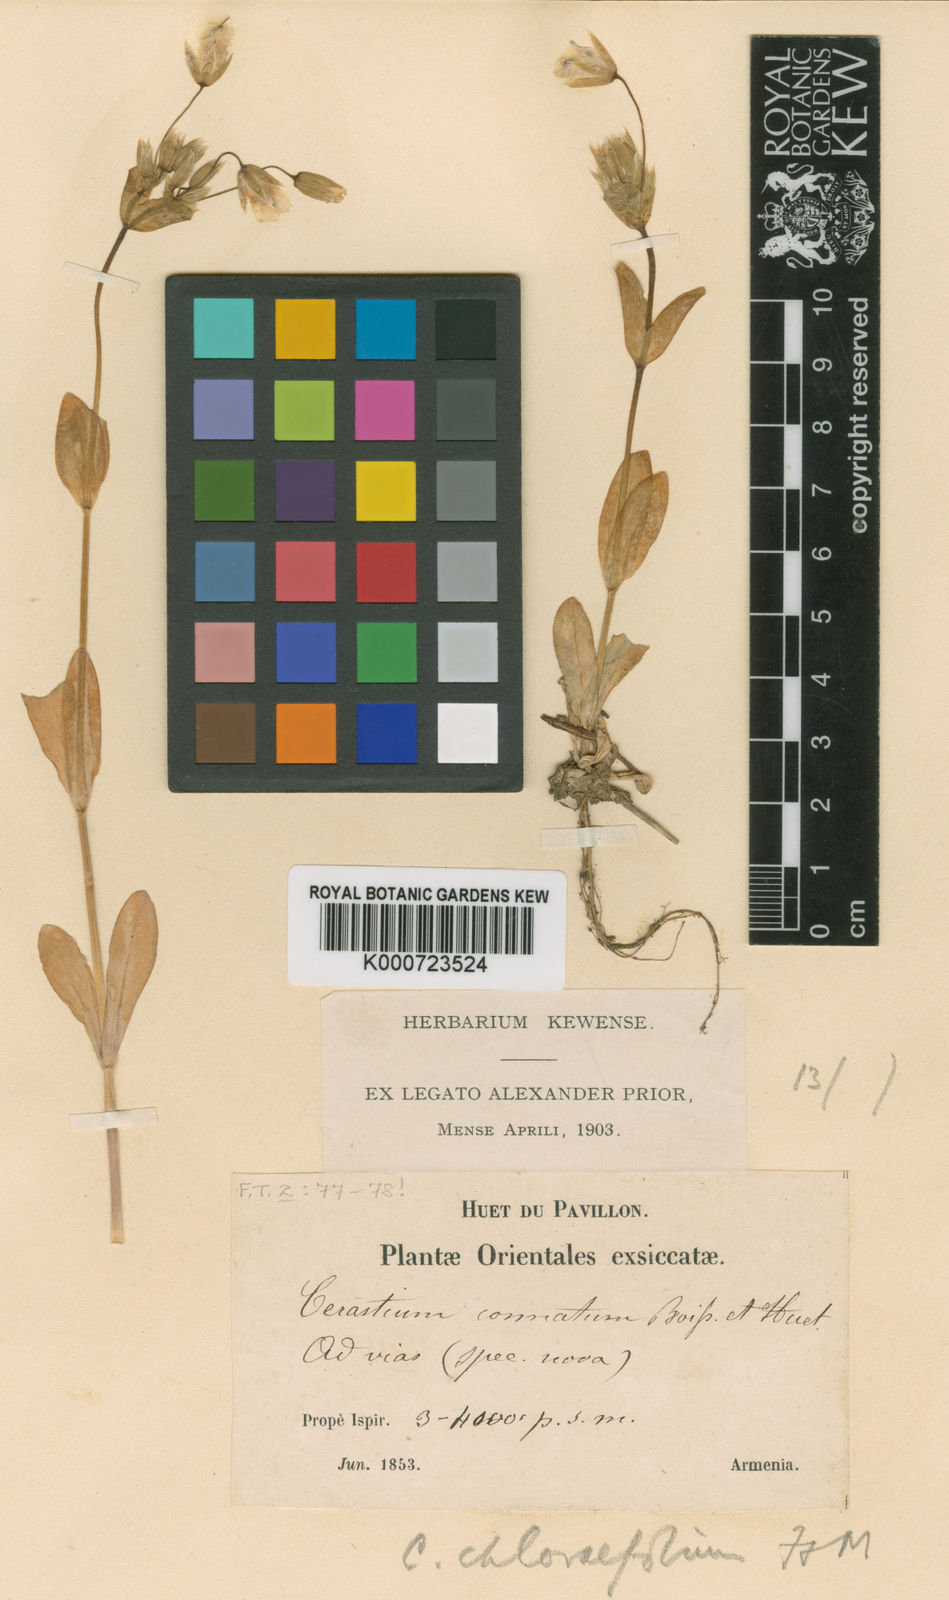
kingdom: Plantae
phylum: Tracheophyta
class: Magnoliopsida
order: Caryophyllales
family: Caryophyllaceae
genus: Dichodon
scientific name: Dichodon chlorifolium
